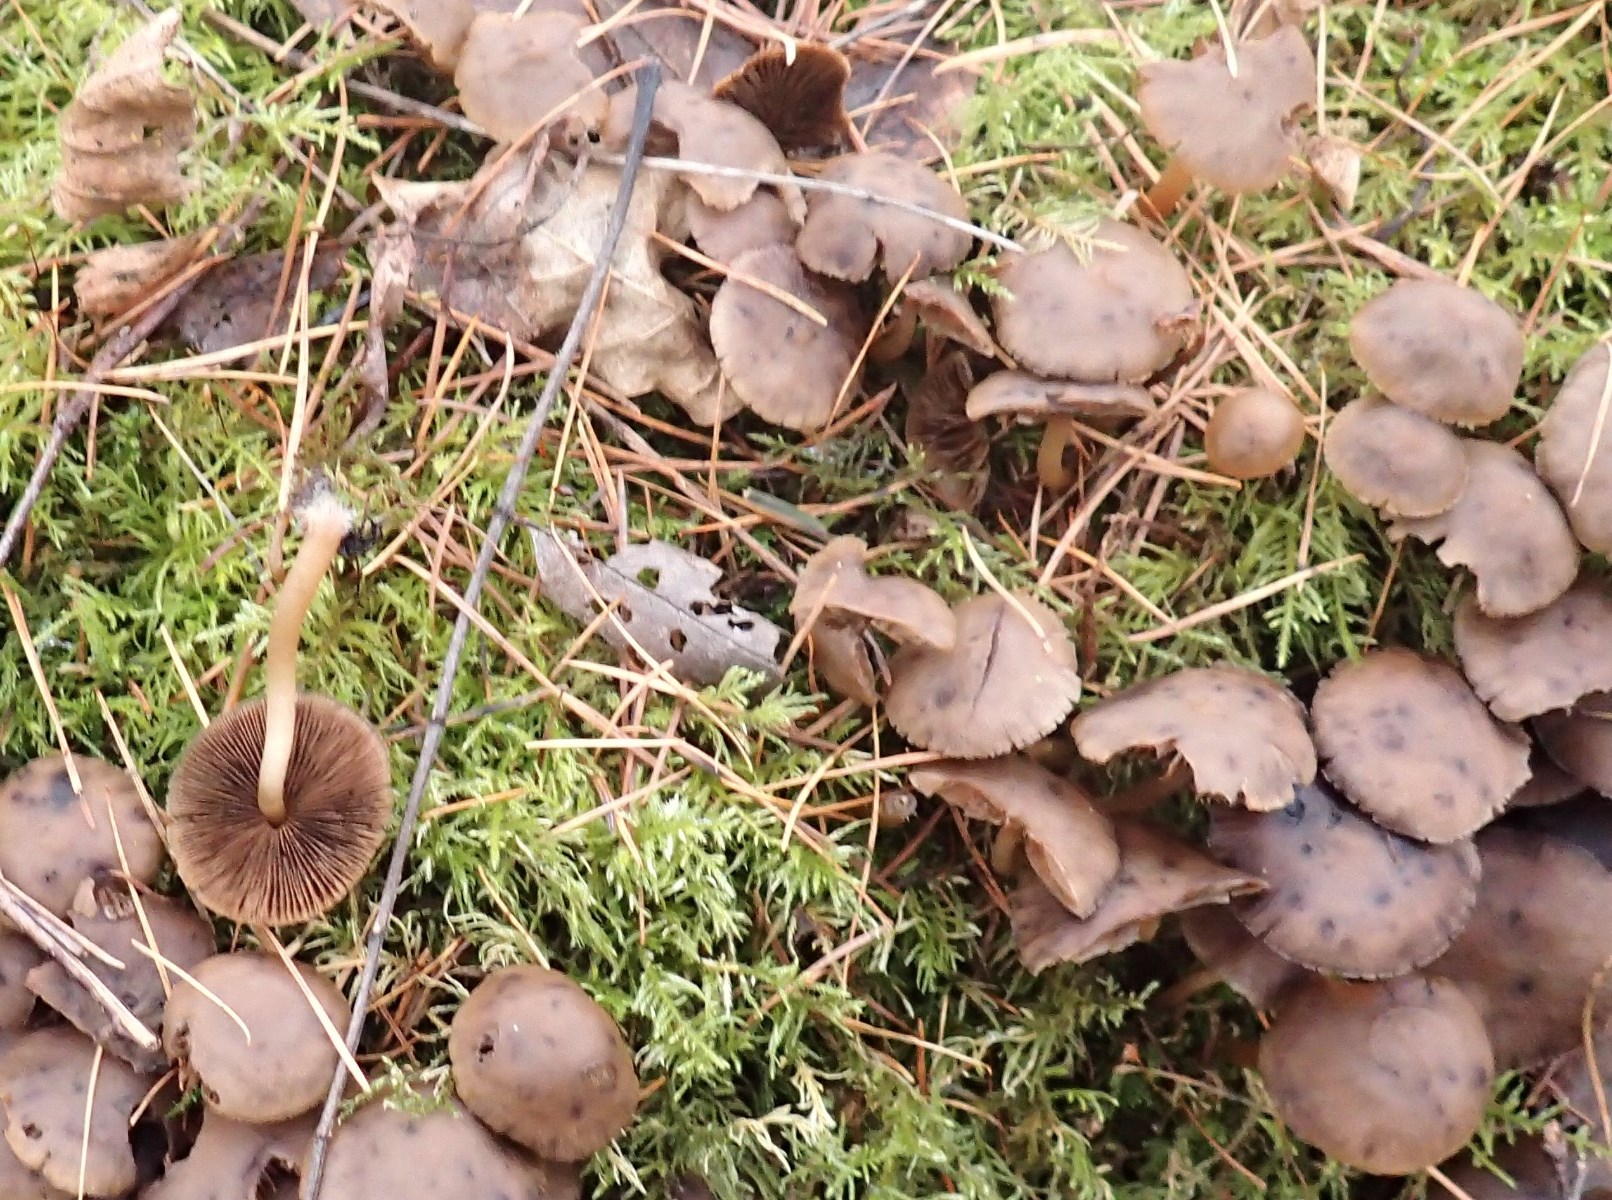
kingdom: Fungi
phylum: Basidiomycota
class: Agaricomycetes
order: Agaricales
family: Psathyrellaceae
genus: Psathyrella
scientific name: Psathyrella piluliformis
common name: lysstokket mørkhat
